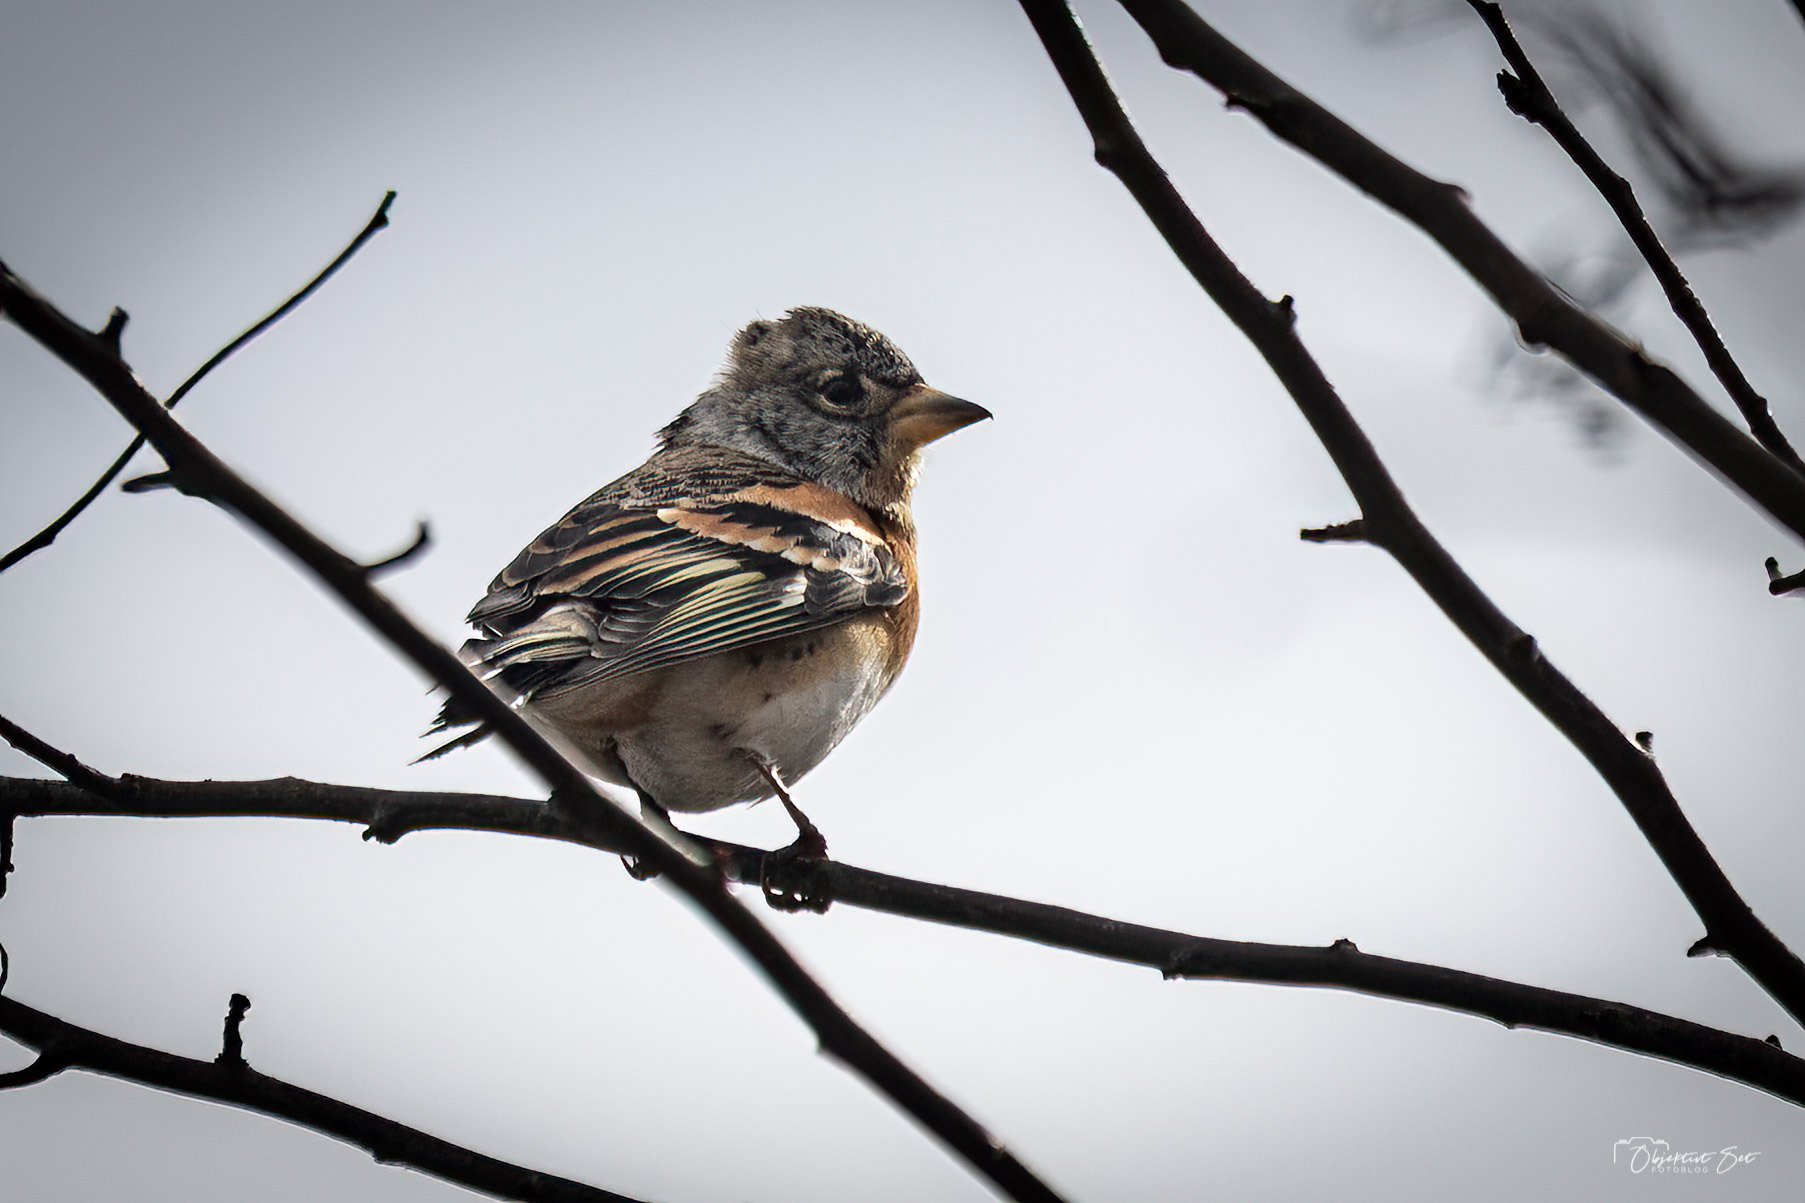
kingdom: Animalia
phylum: Chordata
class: Aves
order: Passeriformes
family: Fringillidae
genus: Fringilla
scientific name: Fringilla montifringilla
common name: Kvækerfinke
